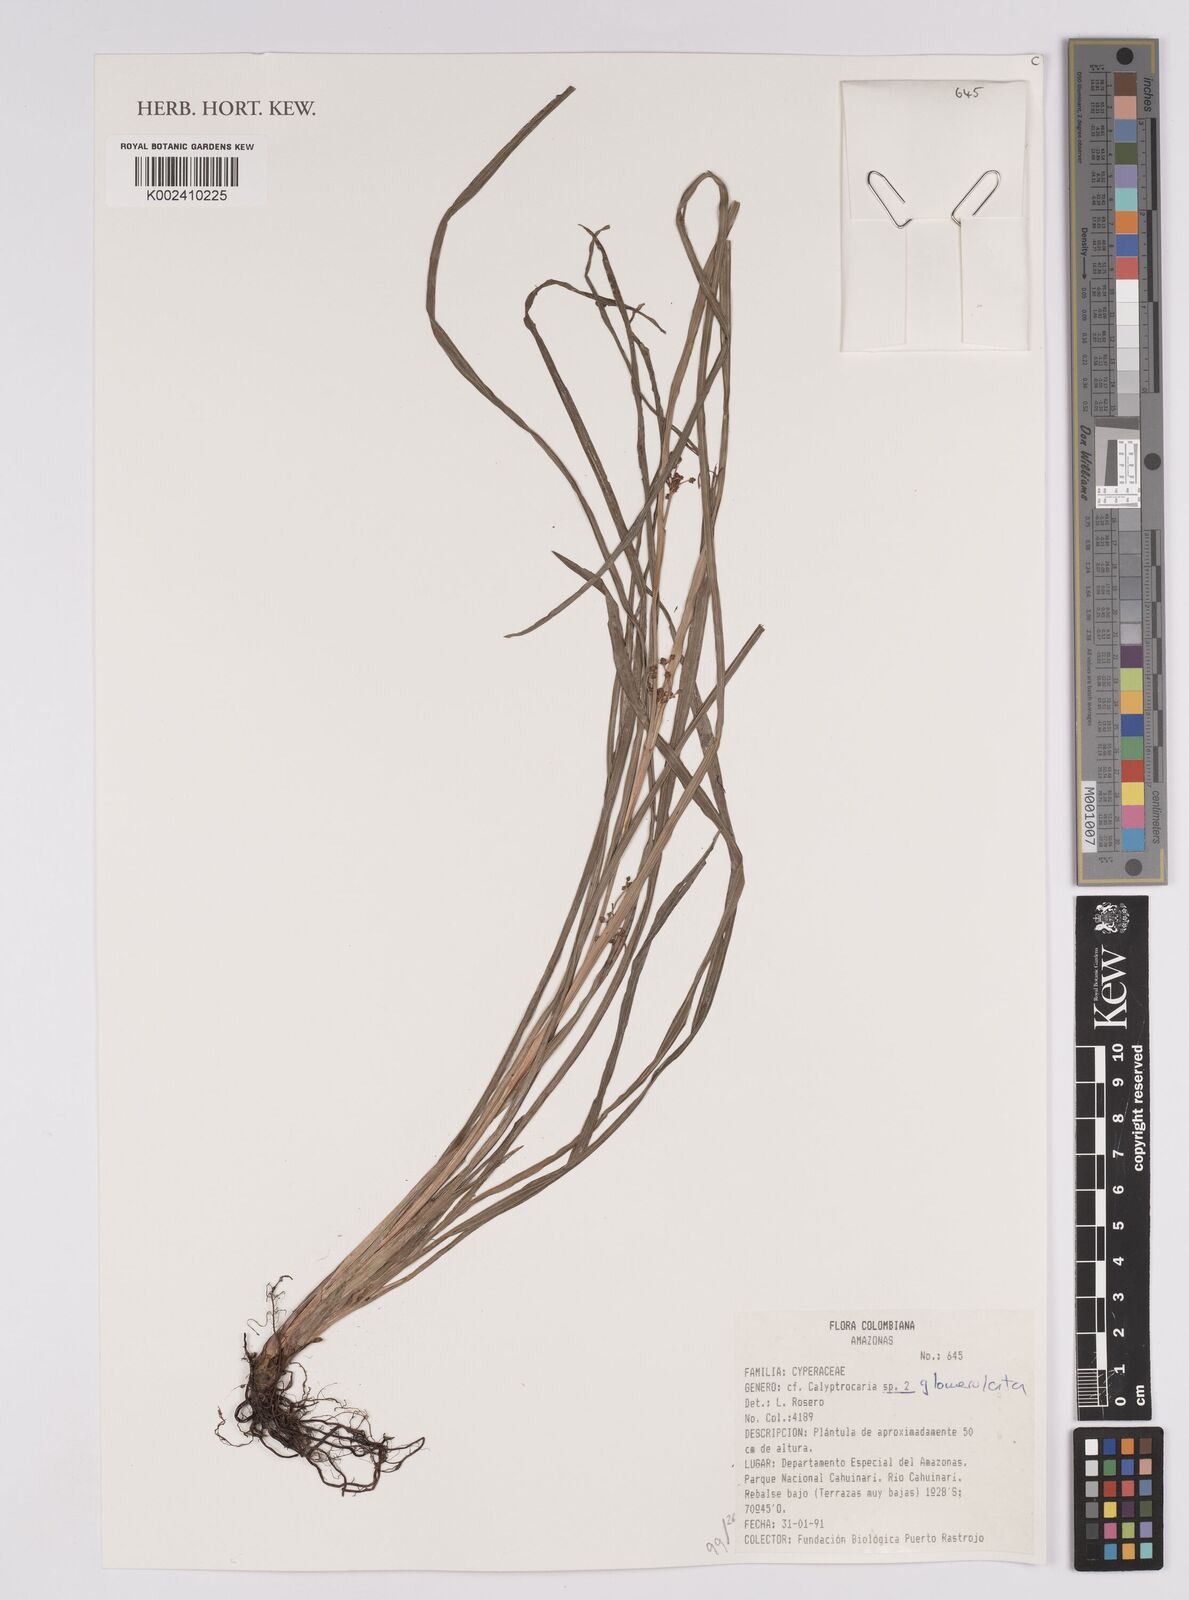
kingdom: Plantae
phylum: Tracheophyta
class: Liliopsida
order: Poales
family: Cyperaceae
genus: Calyptrocarya
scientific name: Calyptrocarya glomerulata
